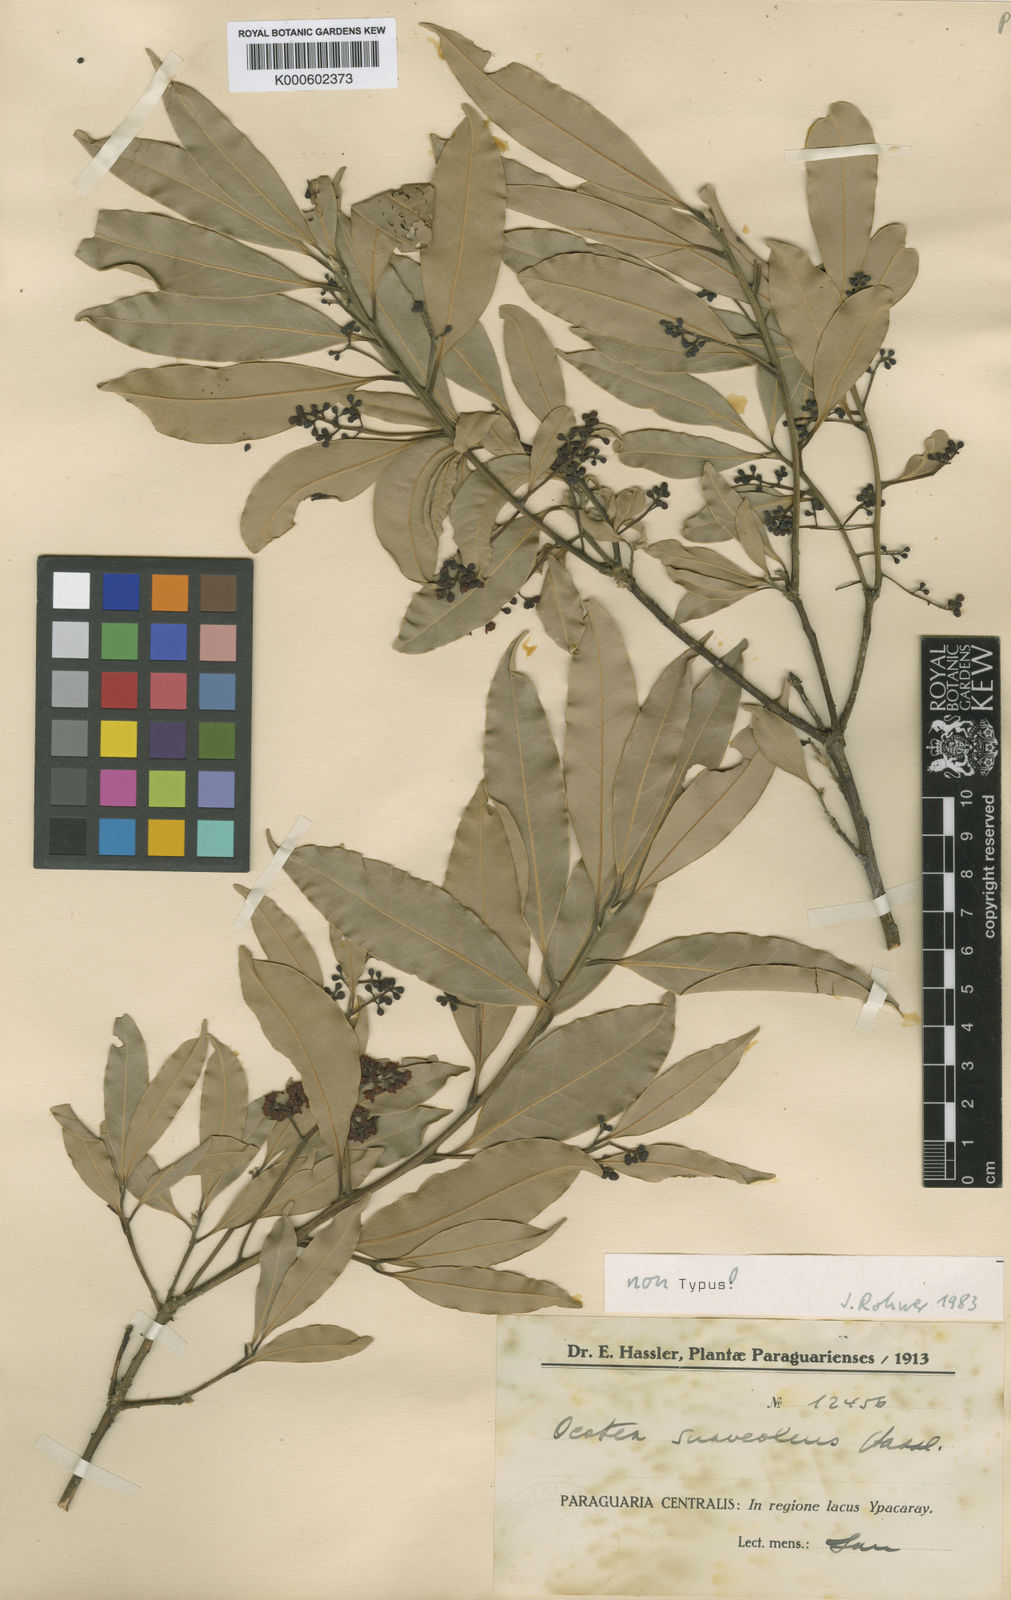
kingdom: Plantae
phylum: Tracheophyta
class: Magnoliopsida
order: Laurales
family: Lauraceae
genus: Ocotea
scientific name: Ocotea
